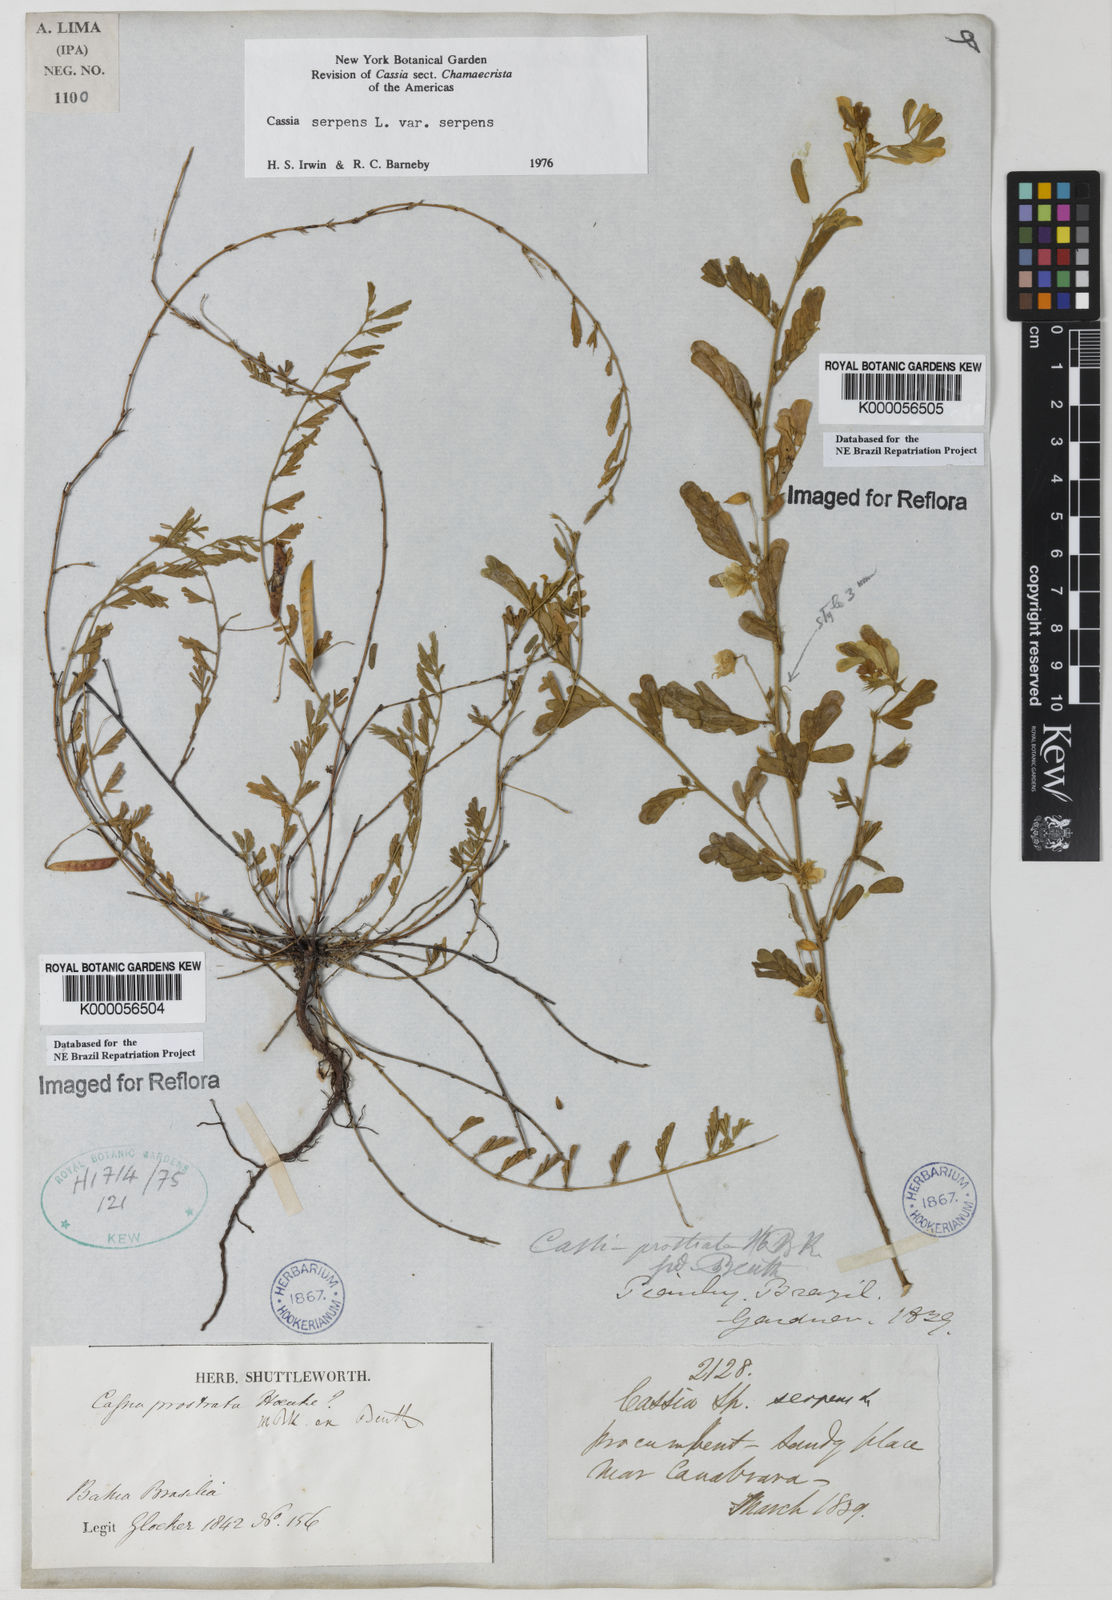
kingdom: Plantae
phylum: Tracheophyta
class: Magnoliopsida
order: Fabales
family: Fabaceae
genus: Chamaecrista
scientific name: Chamaecrista serpens
